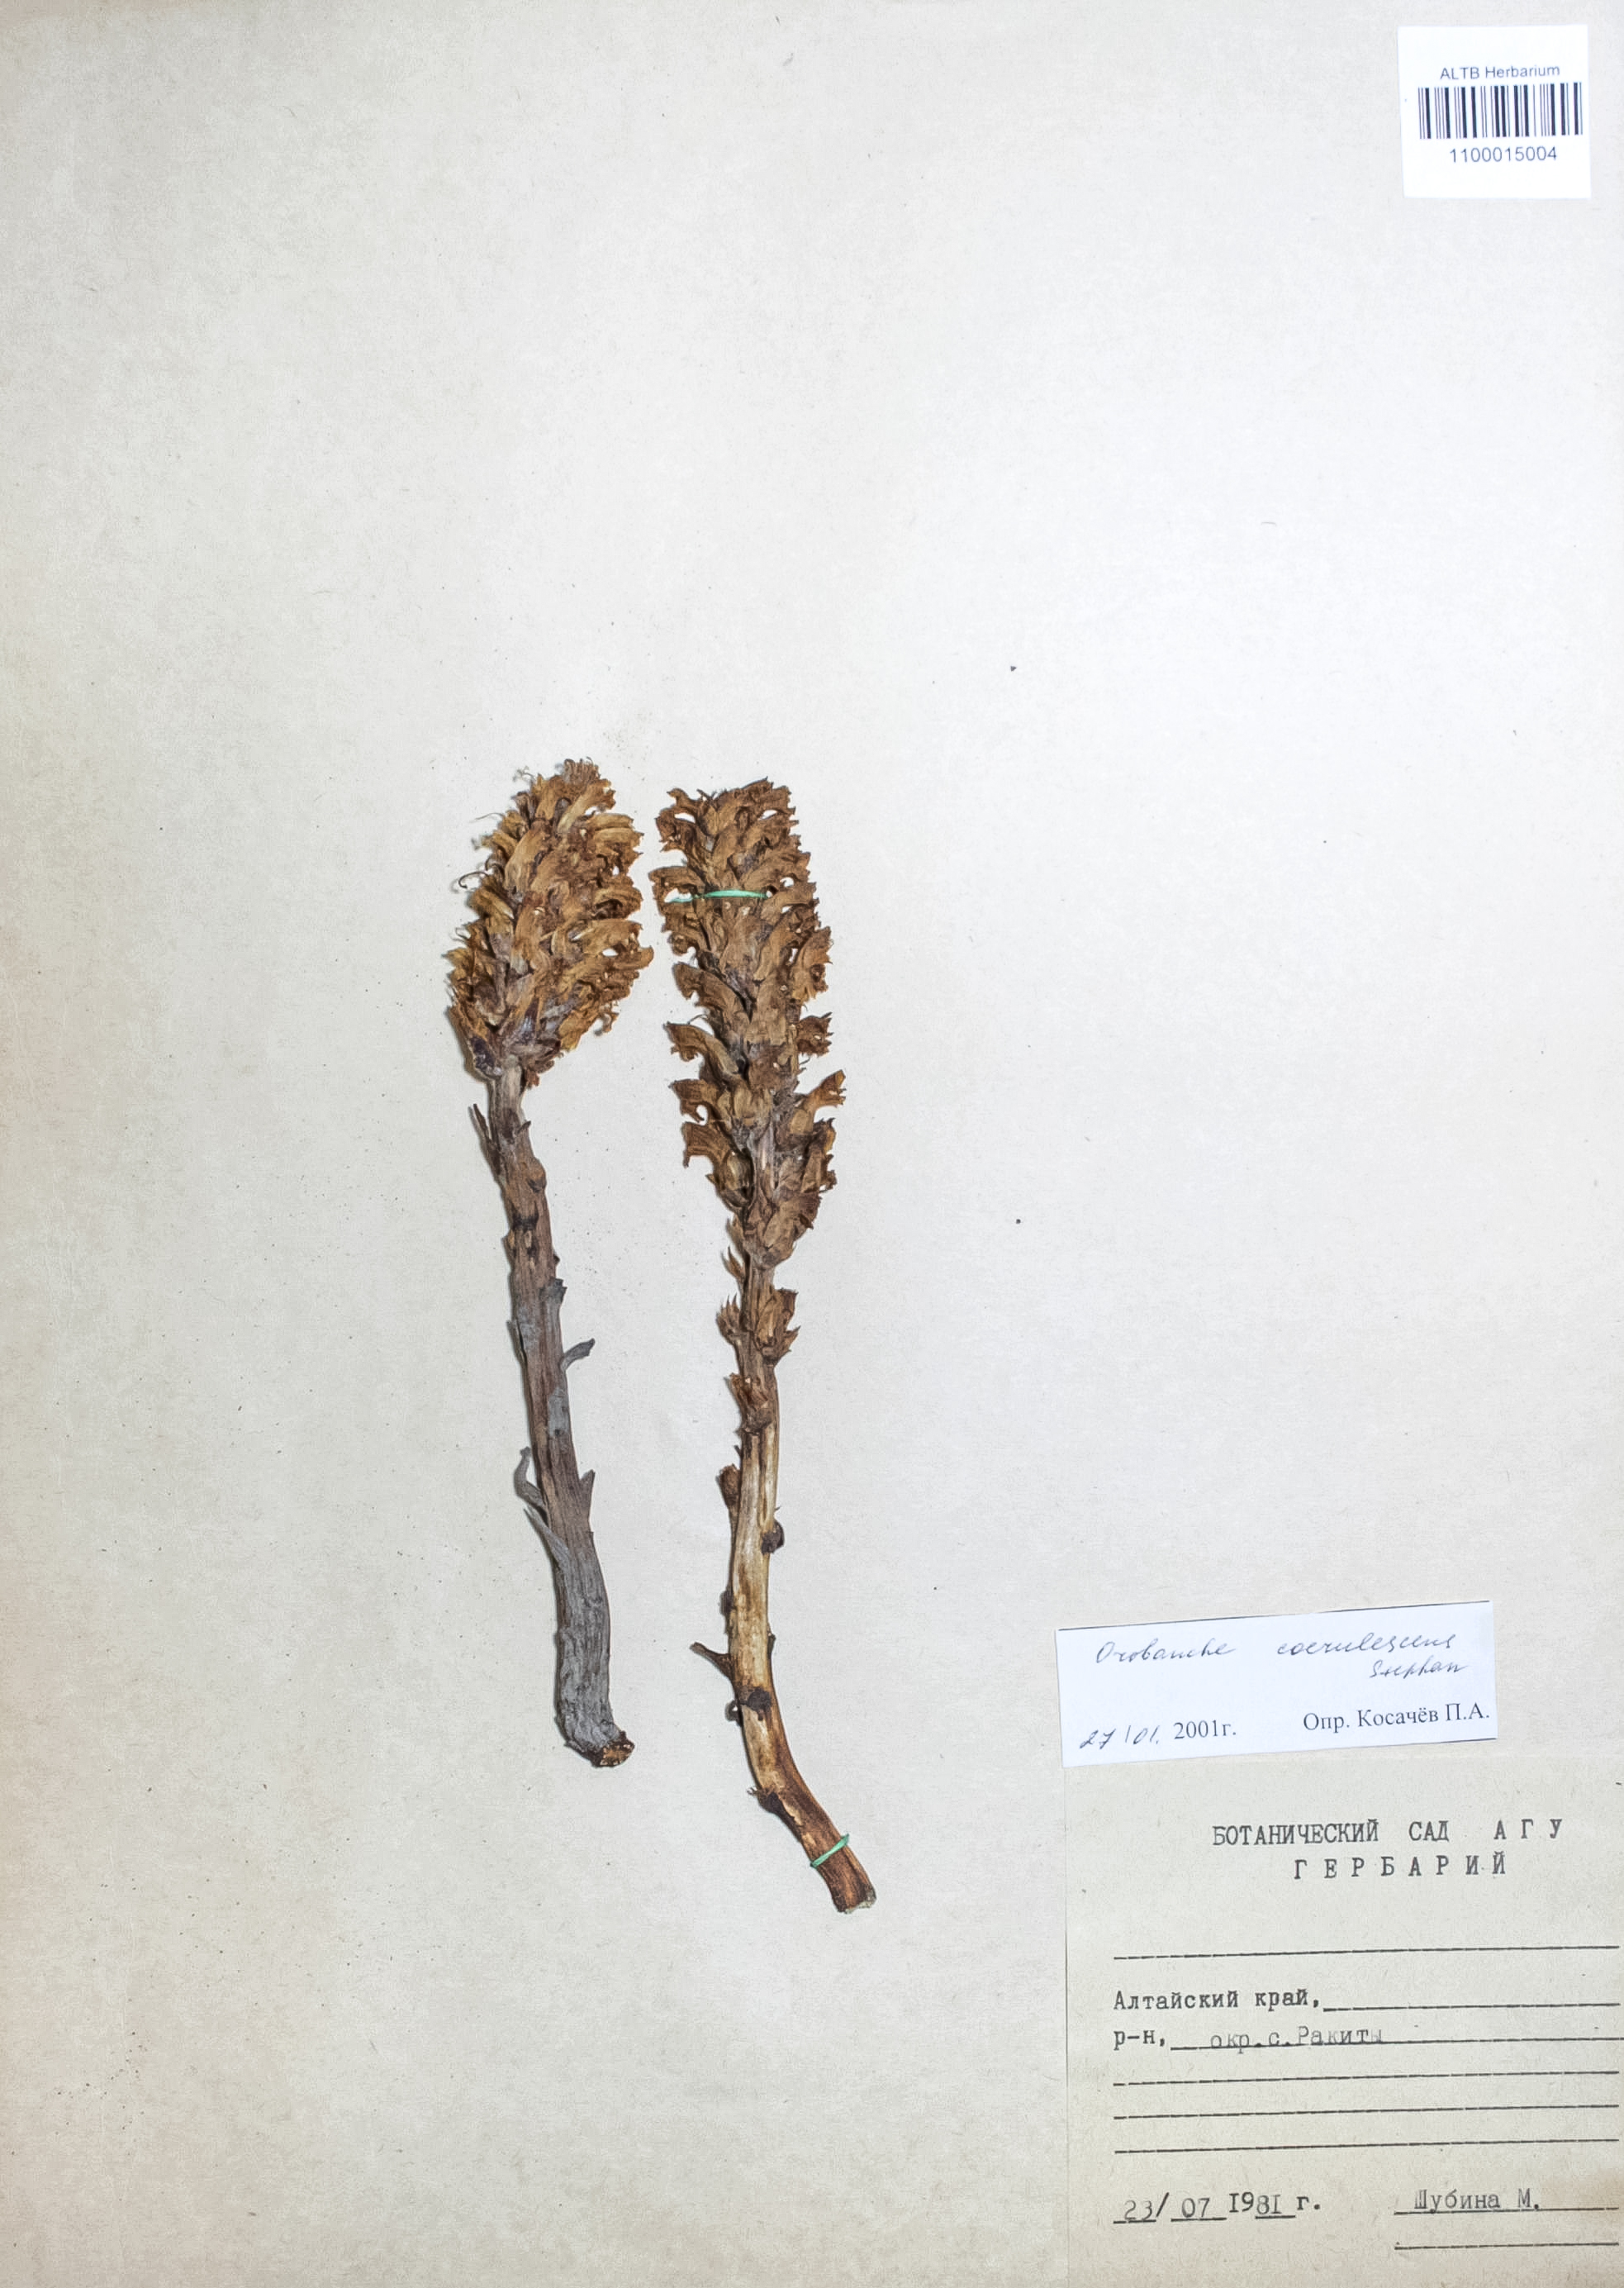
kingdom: Plantae
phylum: Tracheophyta
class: Magnoliopsida
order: Lamiales
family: Orobanchaceae
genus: Orobanche
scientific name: Orobanche coerulescens
